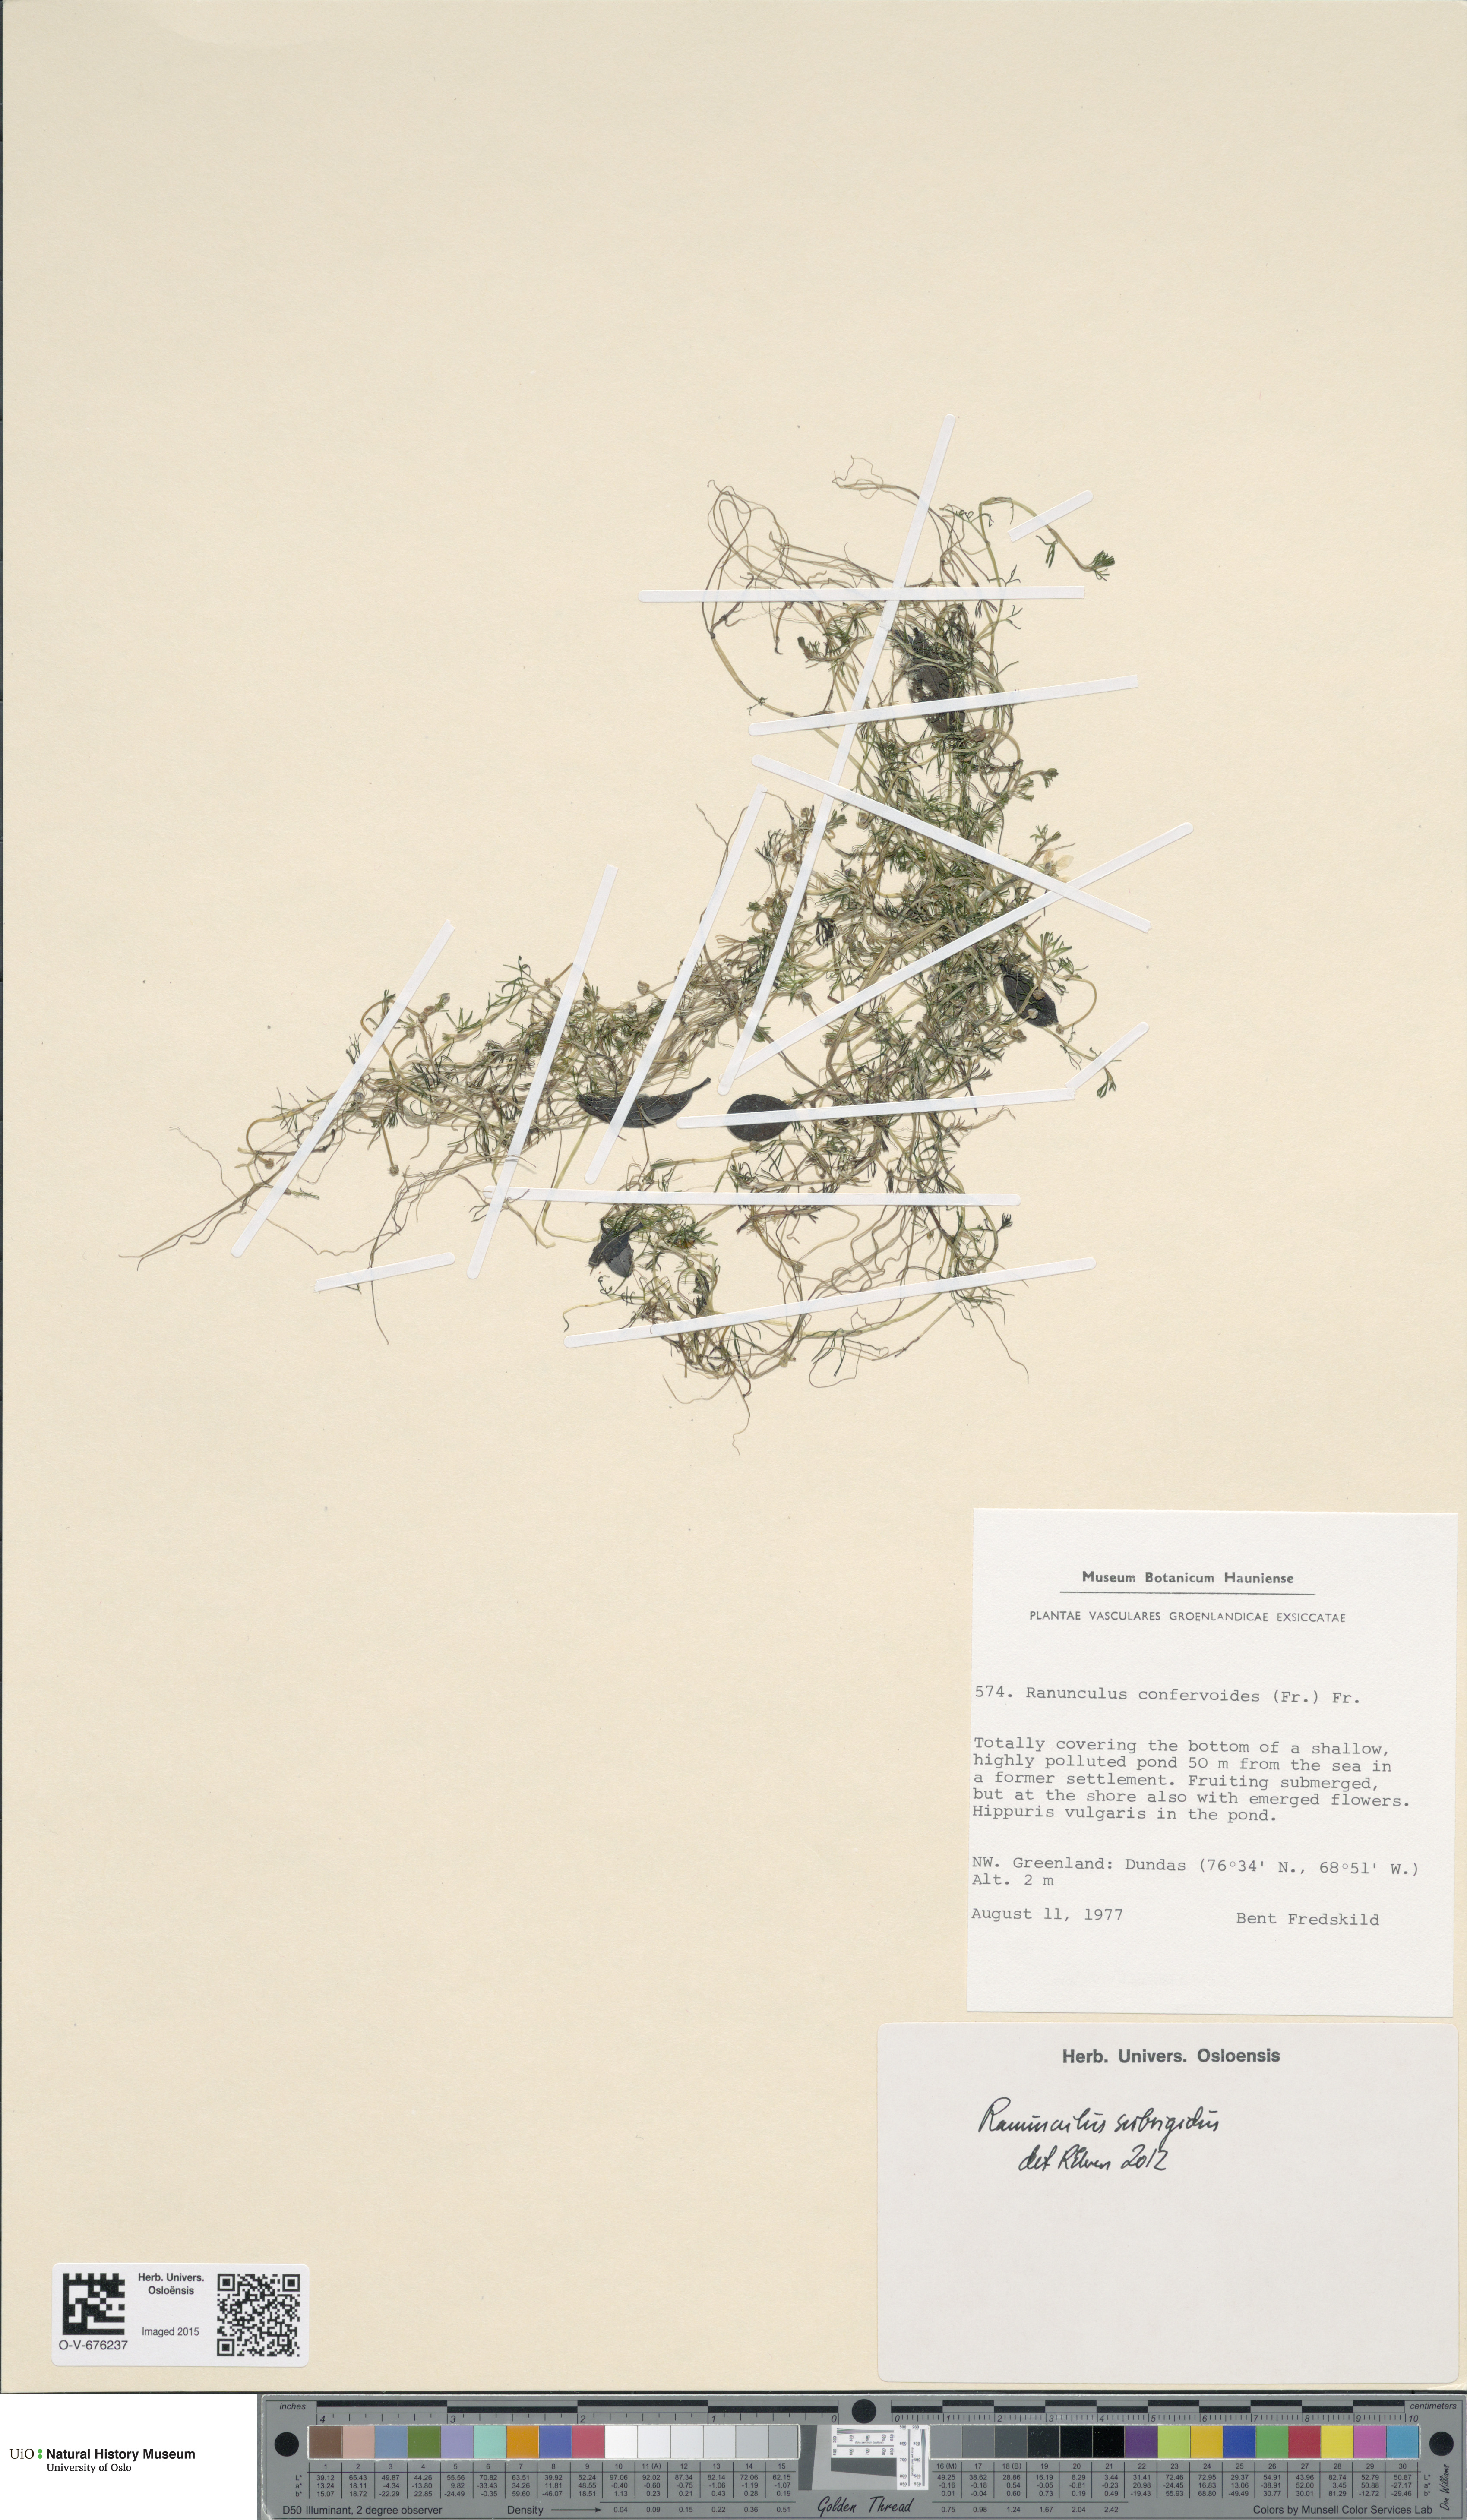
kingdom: Plantae
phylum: Tracheophyta
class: Magnoliopsida
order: Ranunculales
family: Ranunculaceae
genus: Ranunculus
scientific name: Ranunculus longirostris
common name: Curly white water-crowfoot
